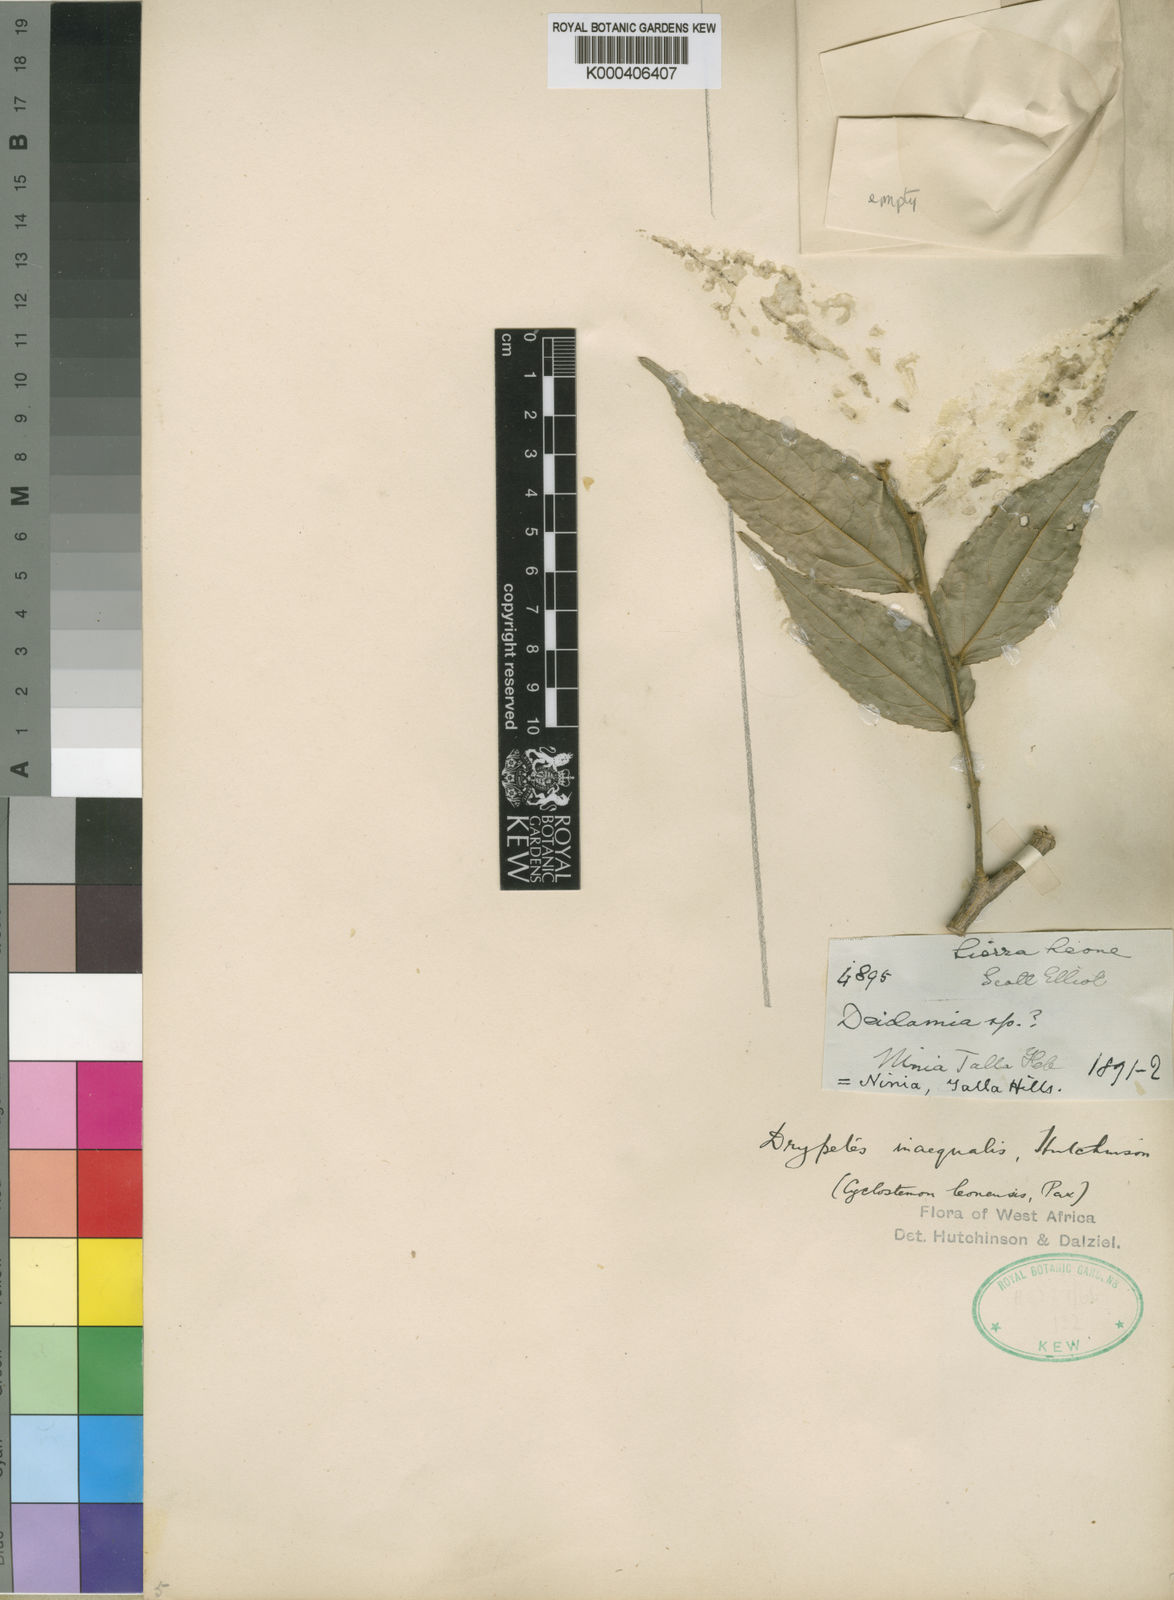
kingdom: Plantae
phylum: Tracheophyta
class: Magnoliopsida
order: Malpighiales
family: Putranjivaceae
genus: Drypetes
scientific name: Drypetes inaequalis
